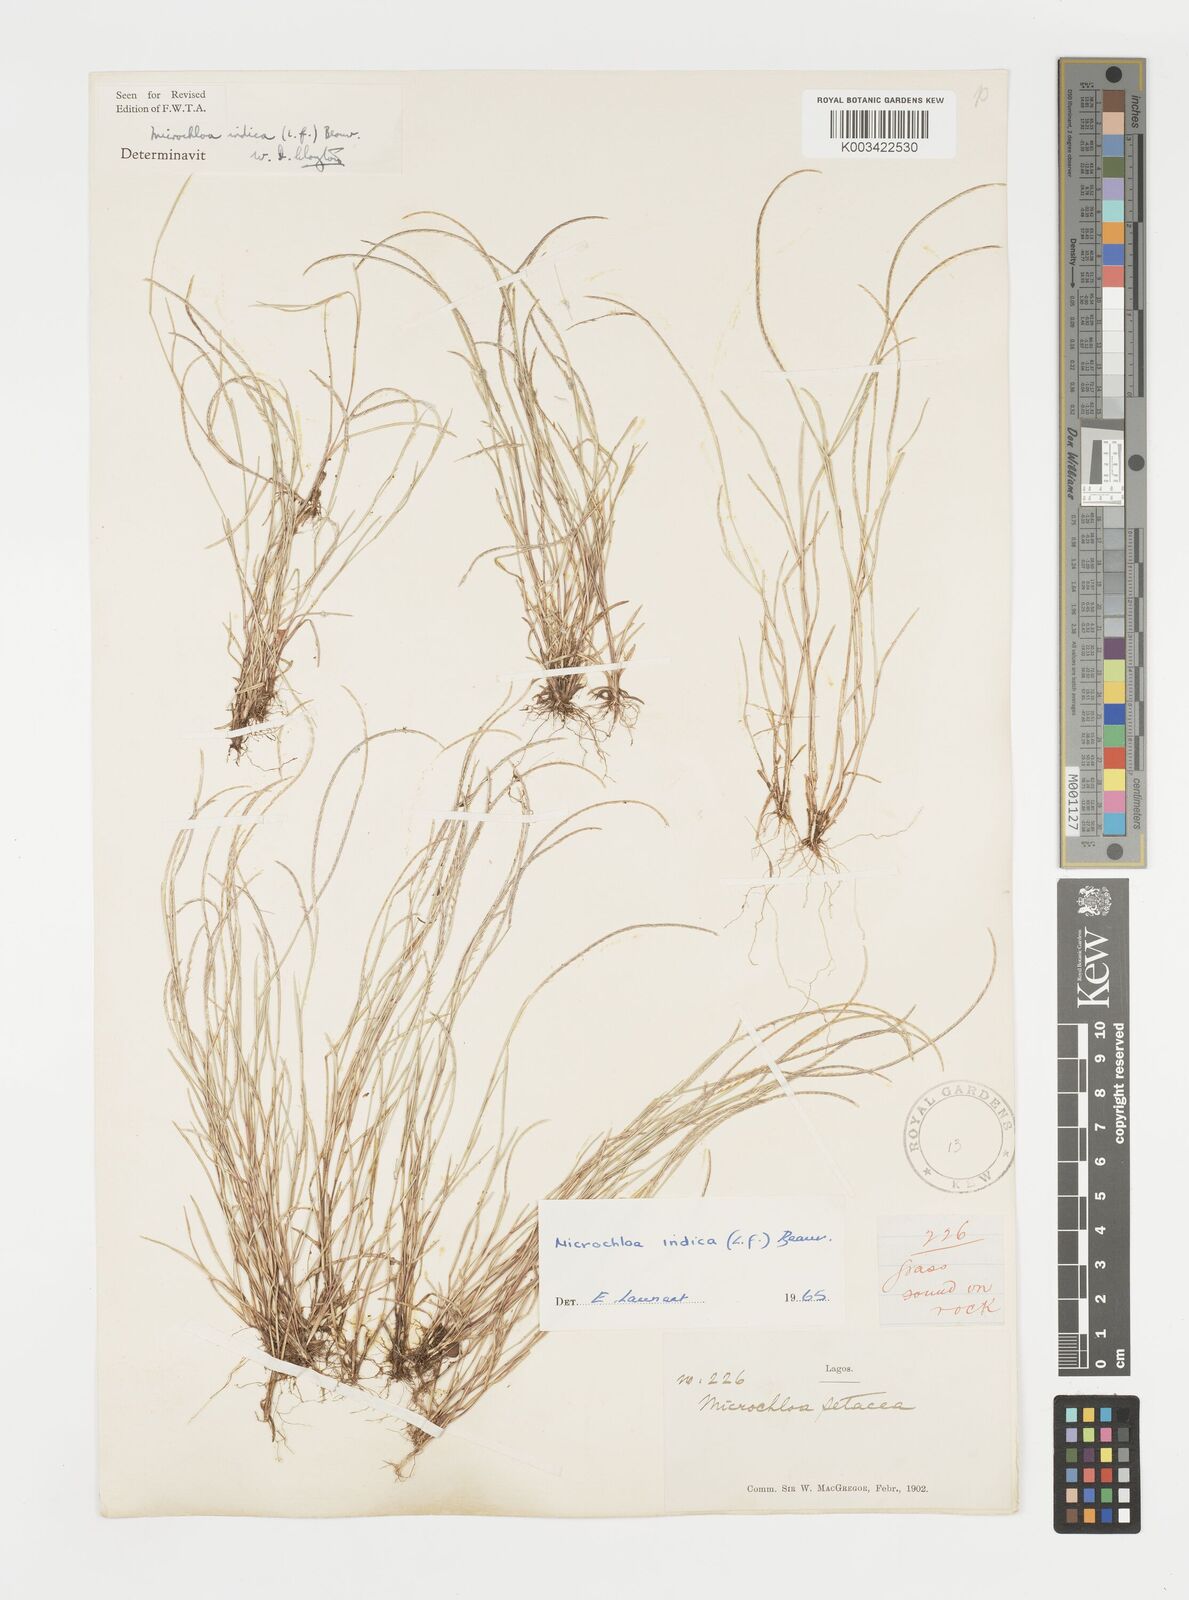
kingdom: Plantae
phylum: Tracheophyta
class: Liliopsida
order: Poales
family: Poaceae
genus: Microchloa
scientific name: Microchloa indica
